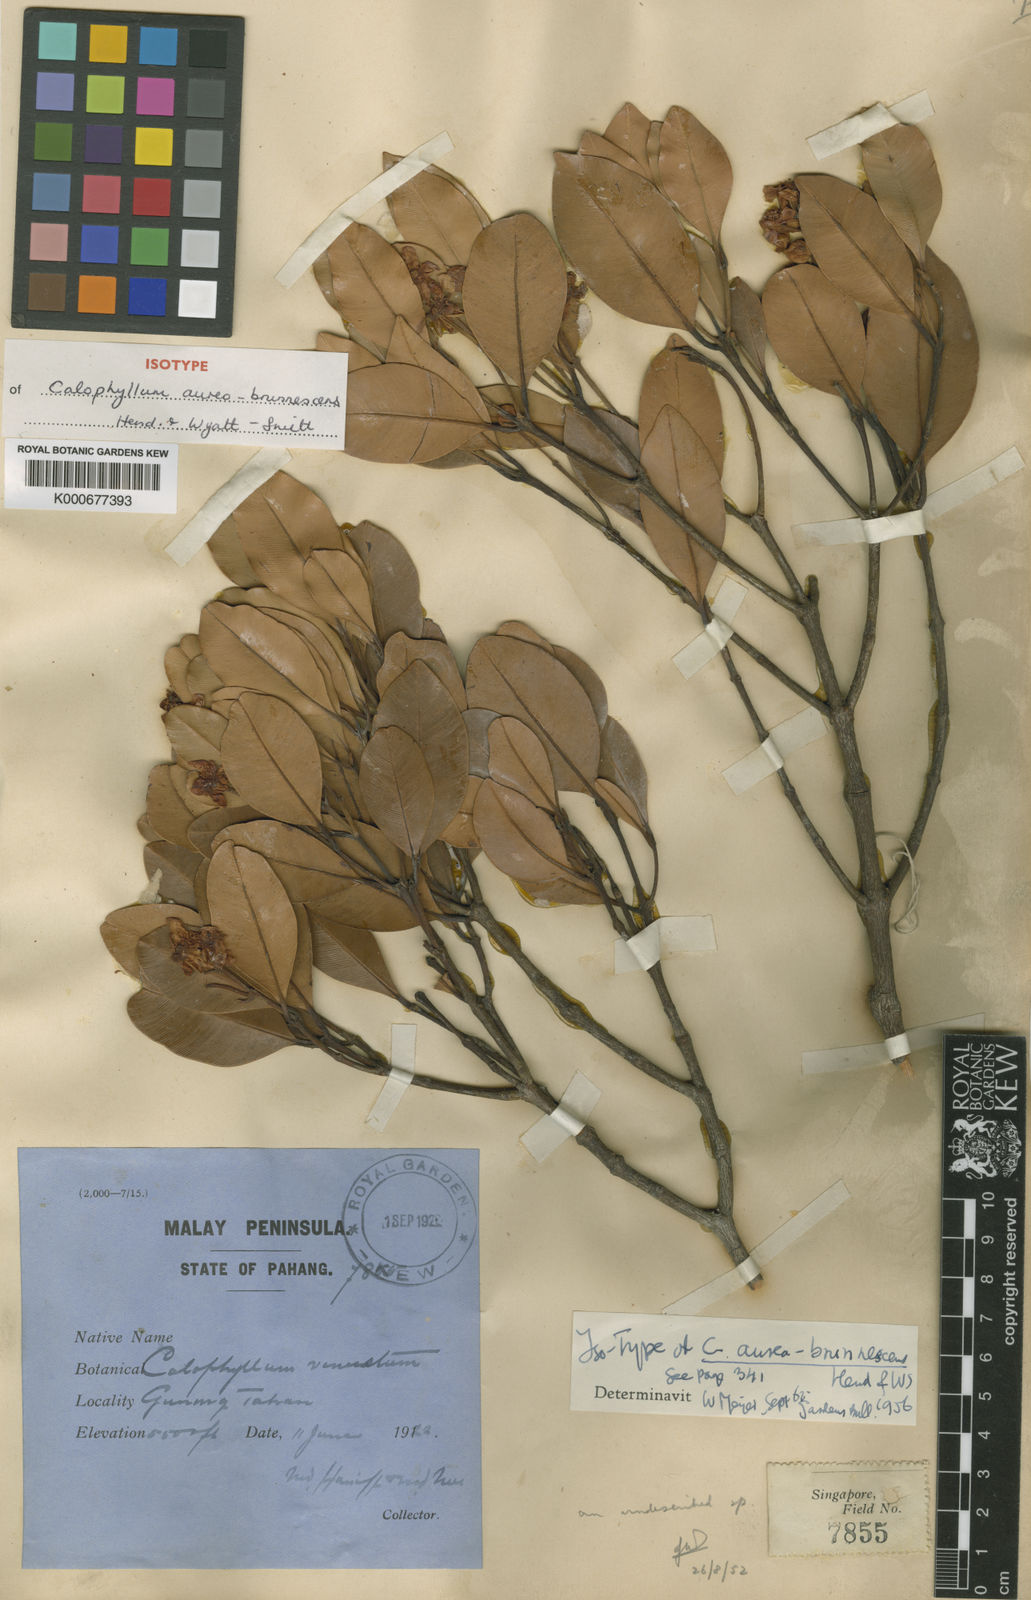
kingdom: Plantae
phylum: Tracheophyta
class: Magnoliopsida
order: Malpighiales
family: Calophyllaceae
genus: Calophyllum
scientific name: Calophyllum aureobrunnescens
